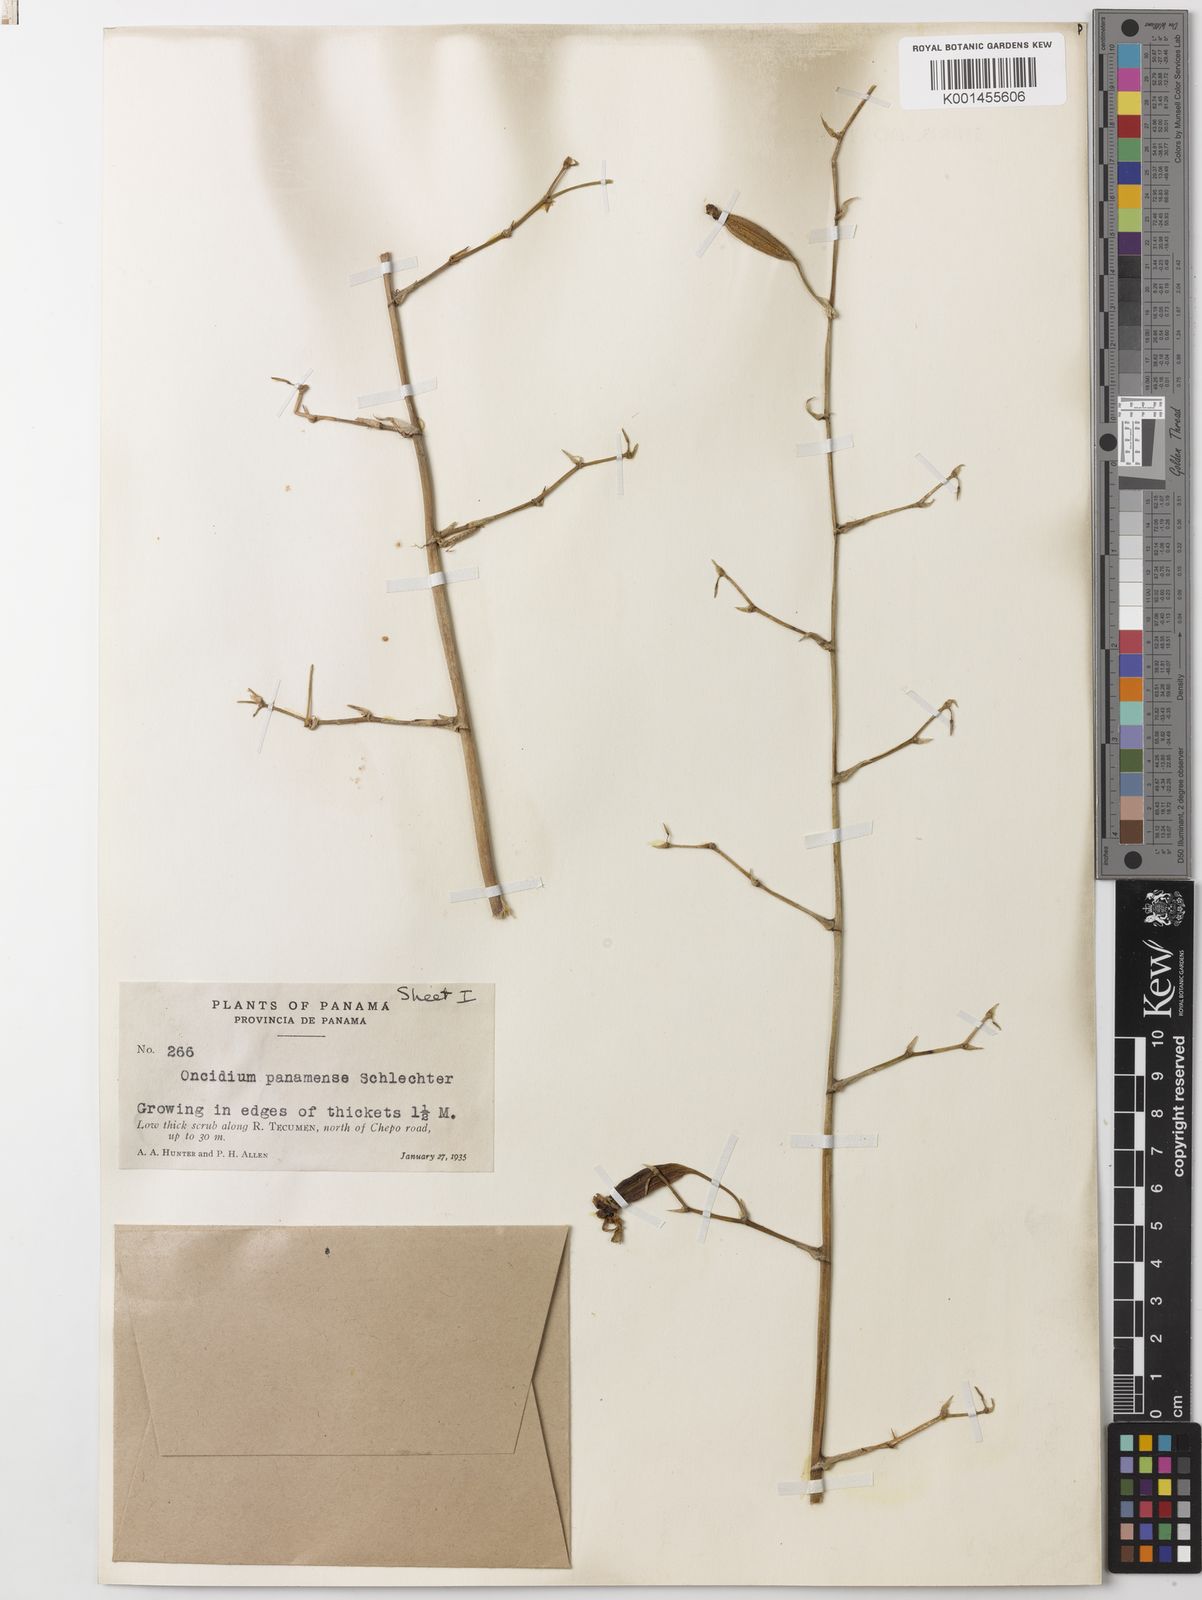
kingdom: Plantae
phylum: Tracheophyta
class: Liliopsida
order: Asparagales
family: Orchidaceae
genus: Oncidium
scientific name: Oncidium panamense
